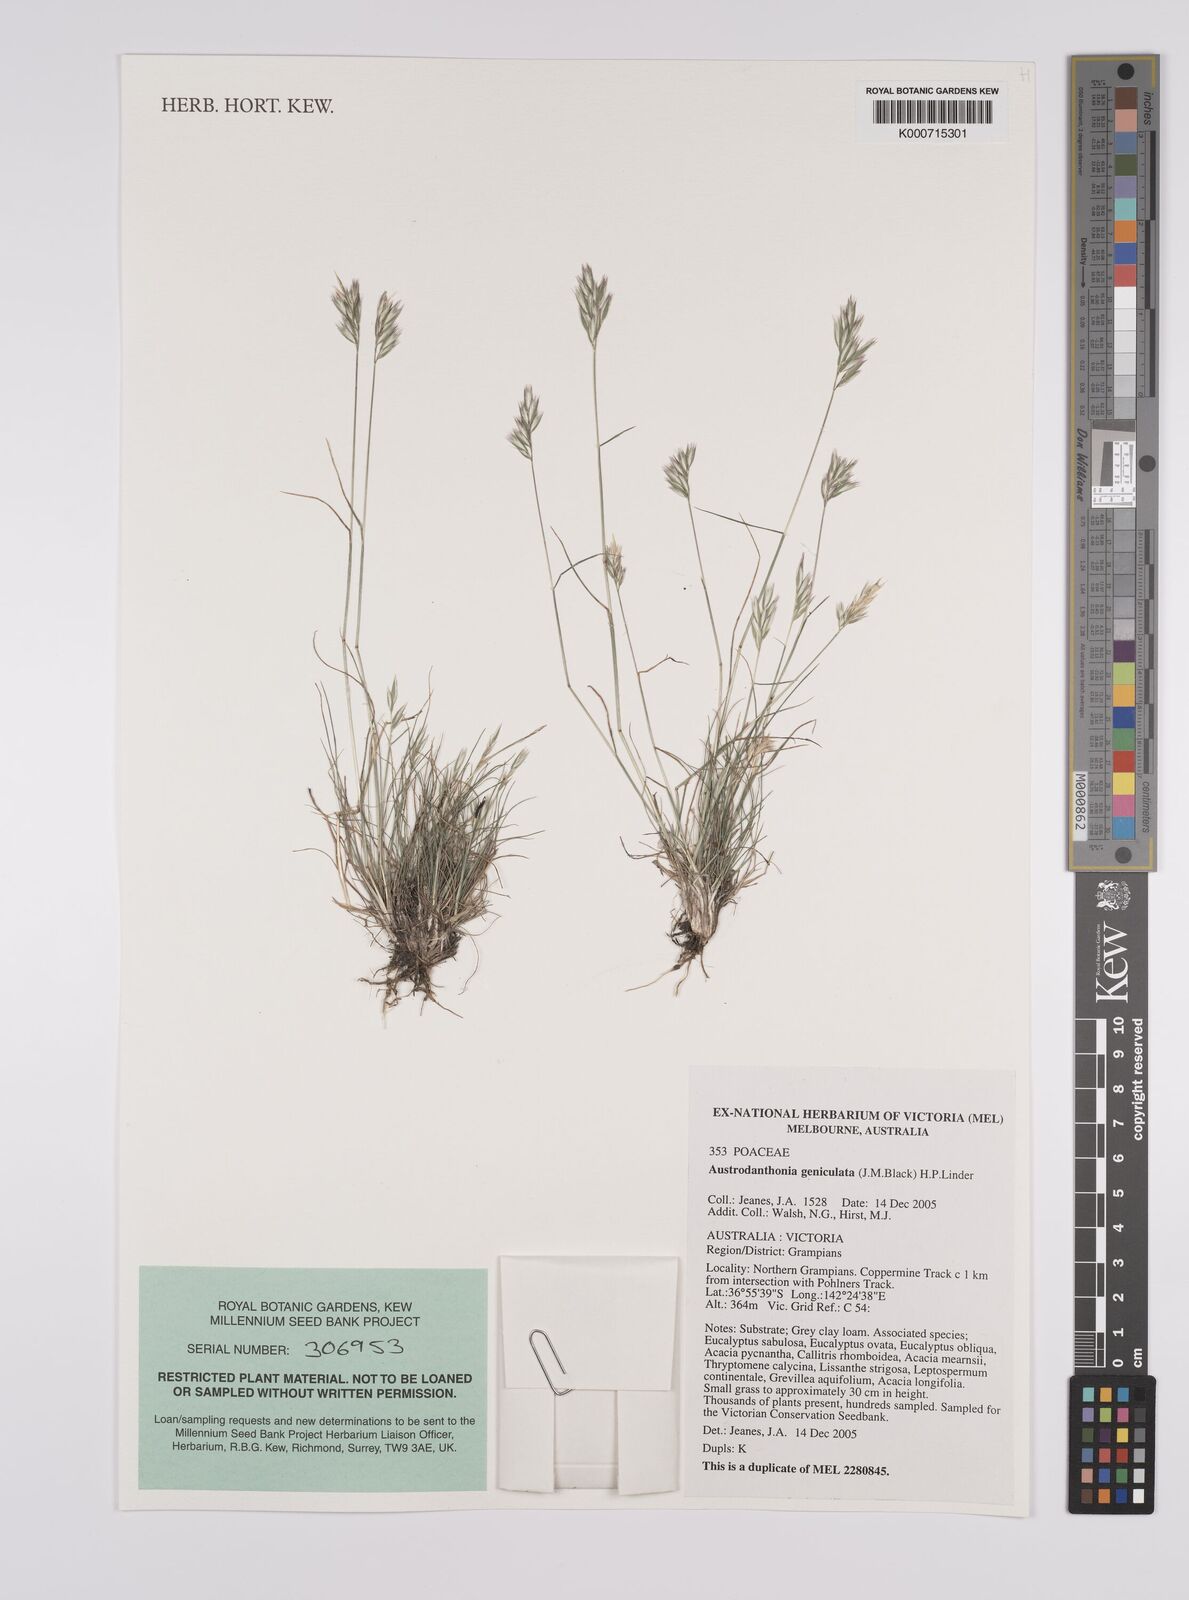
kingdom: Plantae
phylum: Tracheophyta
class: Liliopsida
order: Poales
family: Poaceae
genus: Rytidosperma
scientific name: Rytidosperma geniculatum
